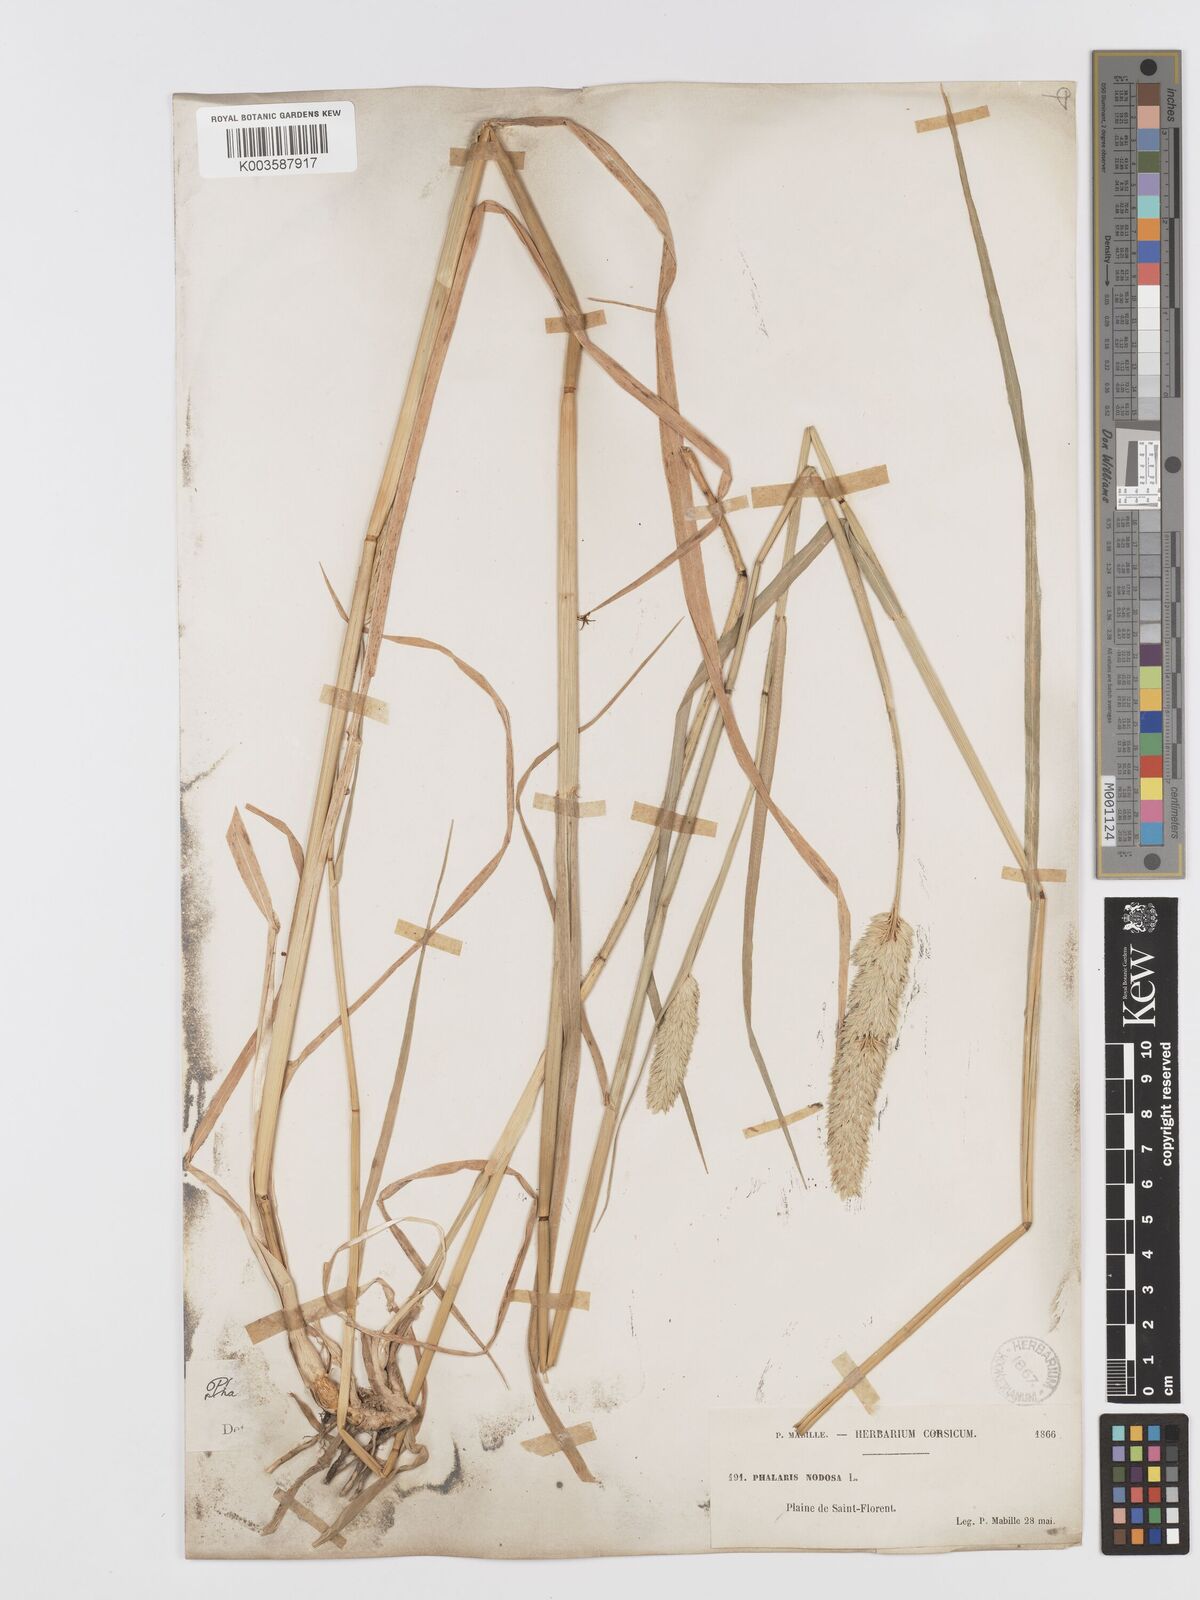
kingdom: Plantae
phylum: Tracheophyta
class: Liliopsida
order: Poales
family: Poaceae
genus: Phalaris
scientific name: Phalaris
